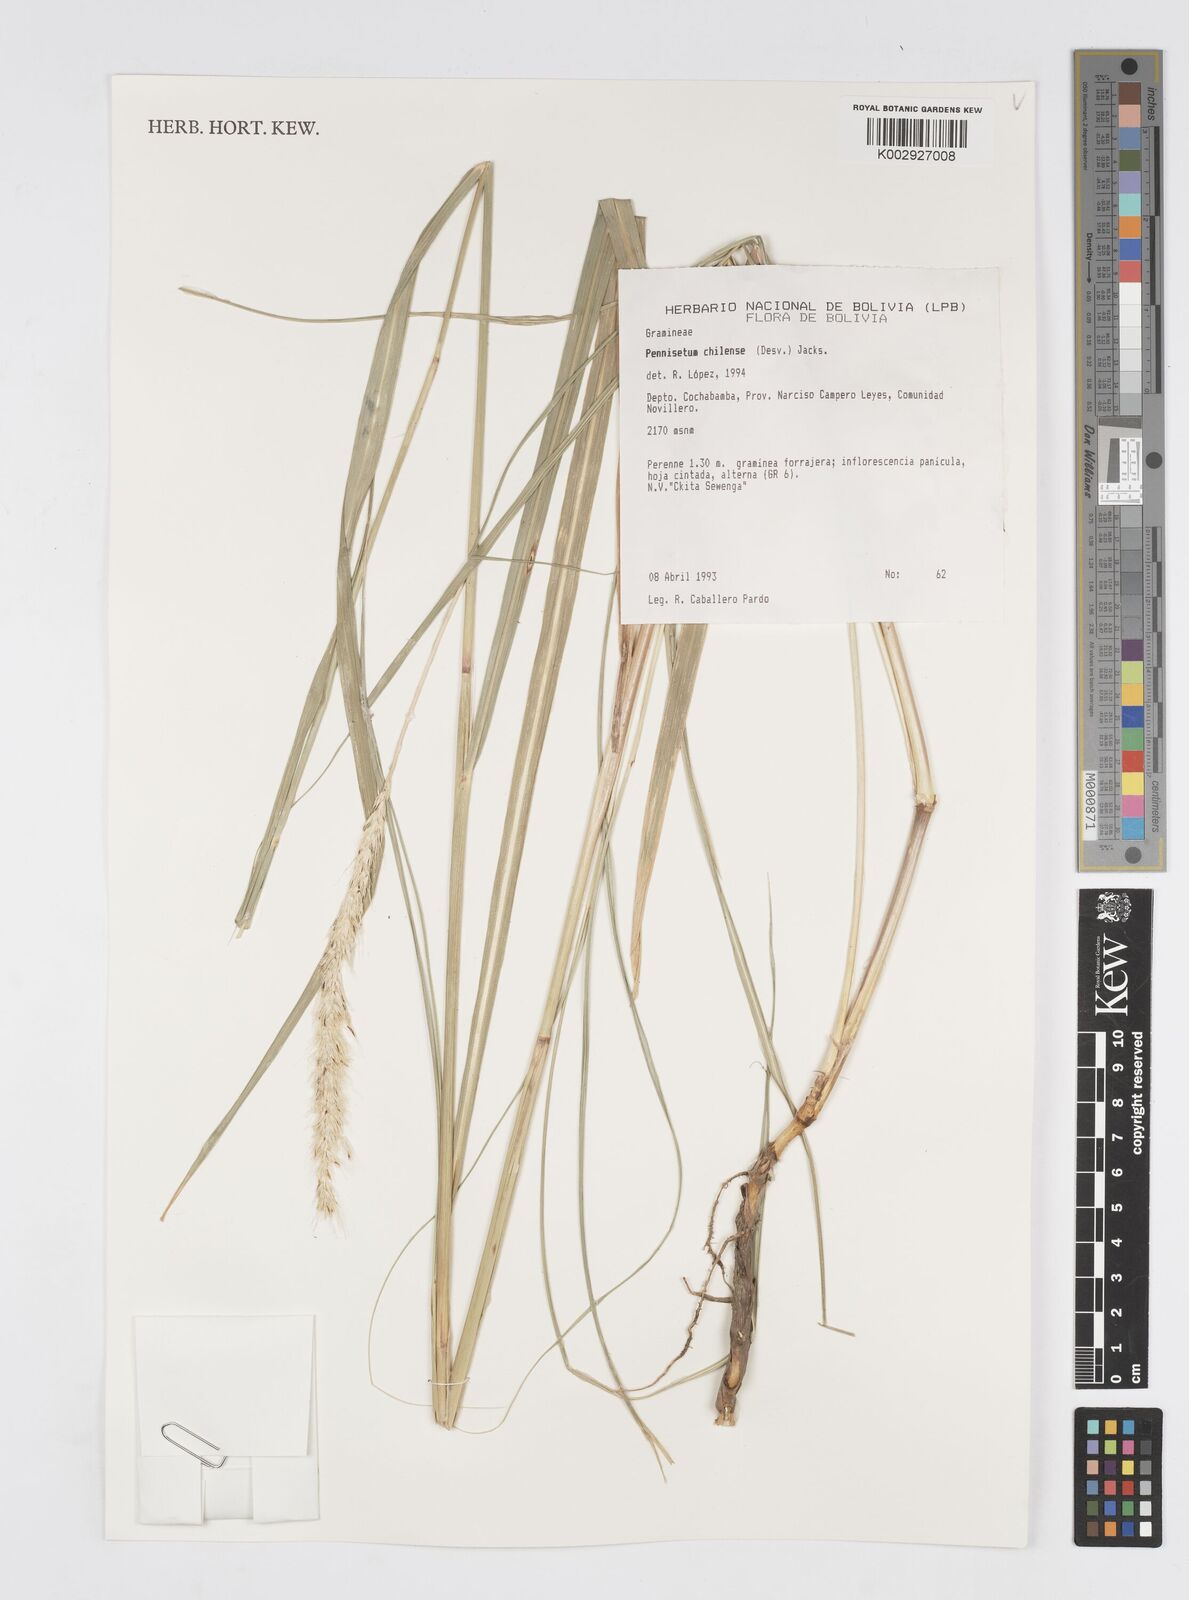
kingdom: Plantae
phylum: Tracheophyta
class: Liliopsida
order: Poales
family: Poaceae
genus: Cenchrus
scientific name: Cenchrus chilensis
